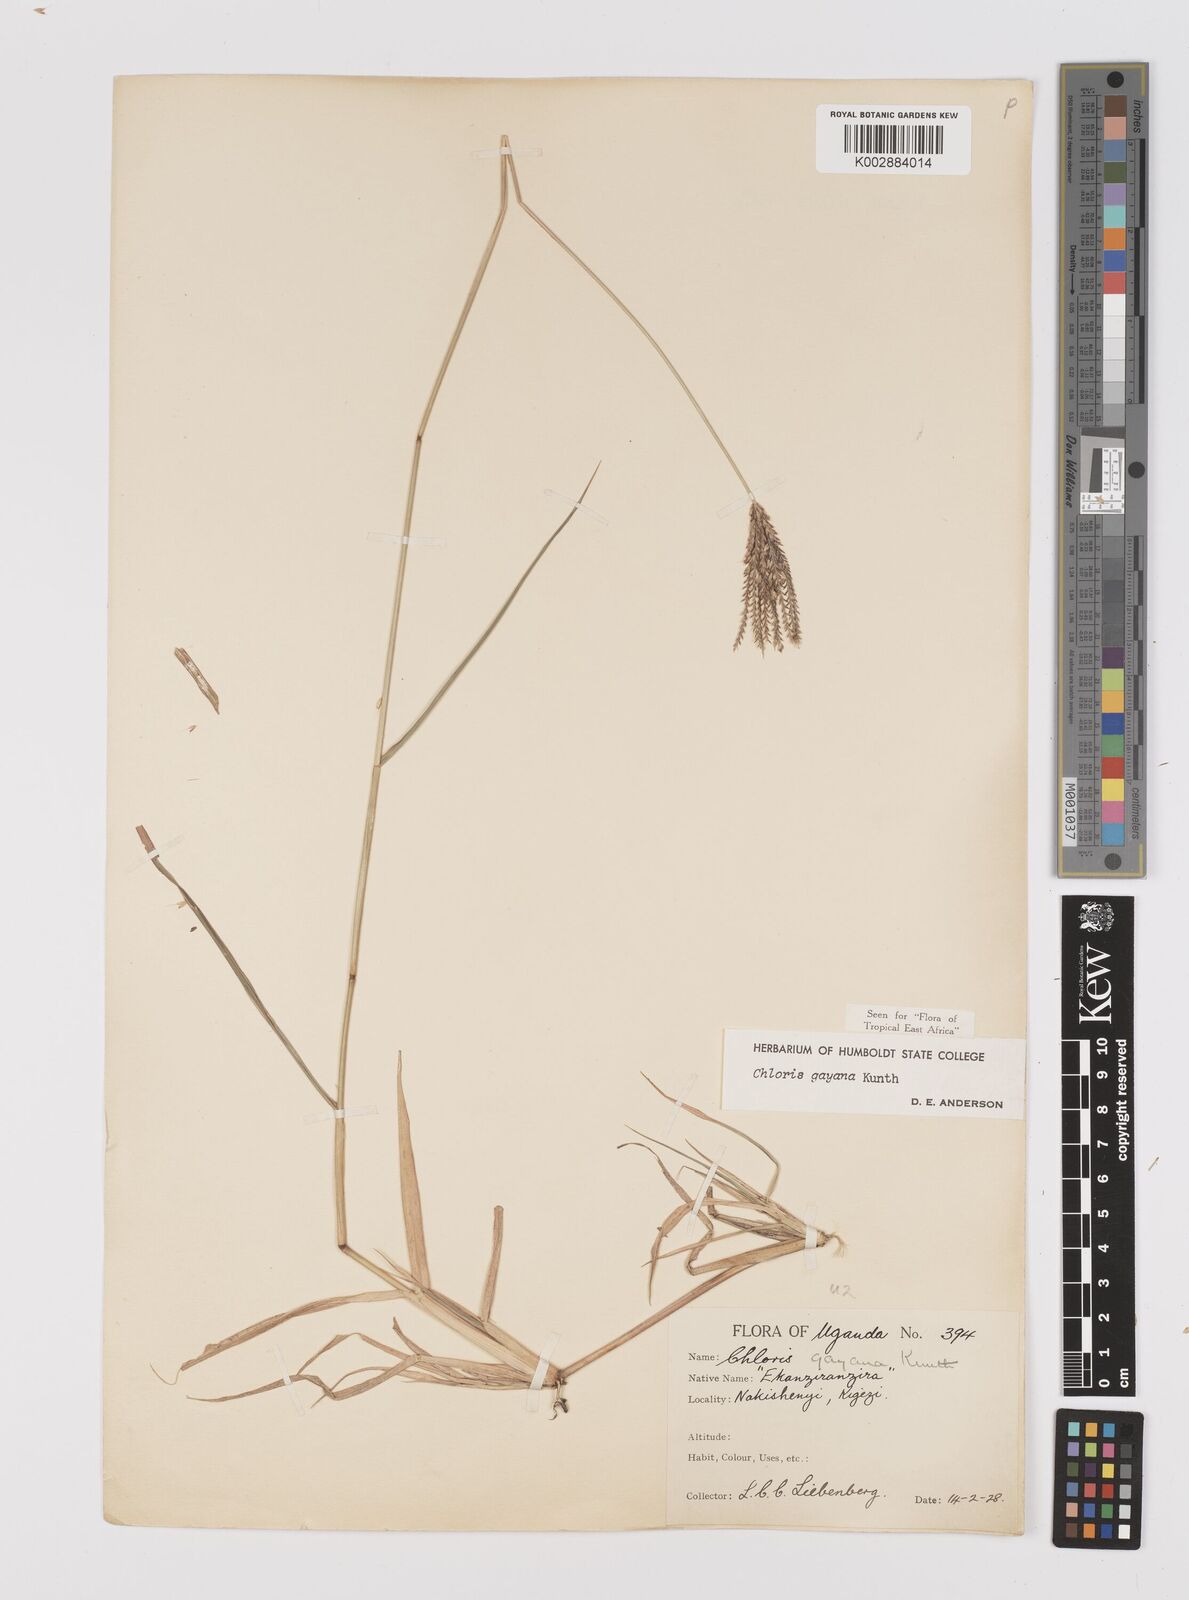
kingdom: Plantae
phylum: Tracheophyta
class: Liliopsida
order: Poales
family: Poaceae
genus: Chloris
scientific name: Chloris gayana
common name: Rhodes grass
